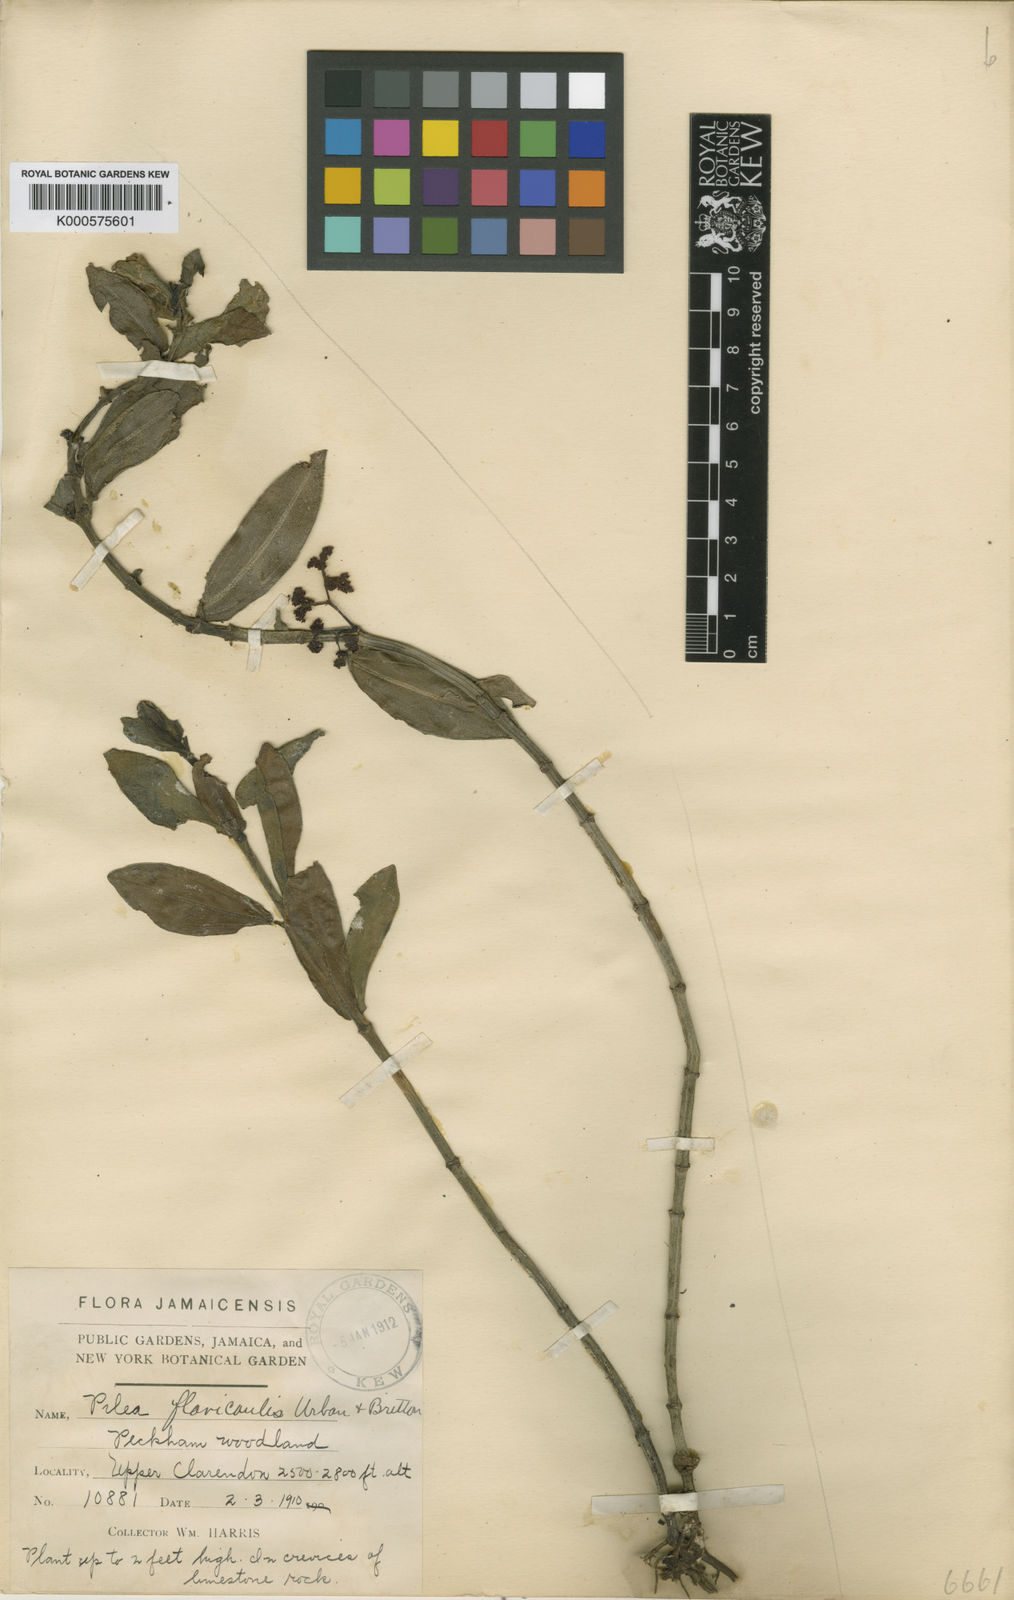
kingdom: Plantae
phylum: Tracheophyta
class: Magnoliopsida
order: Rosales
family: Urticaceae
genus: Pilea
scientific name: Pilea flavicaulis
